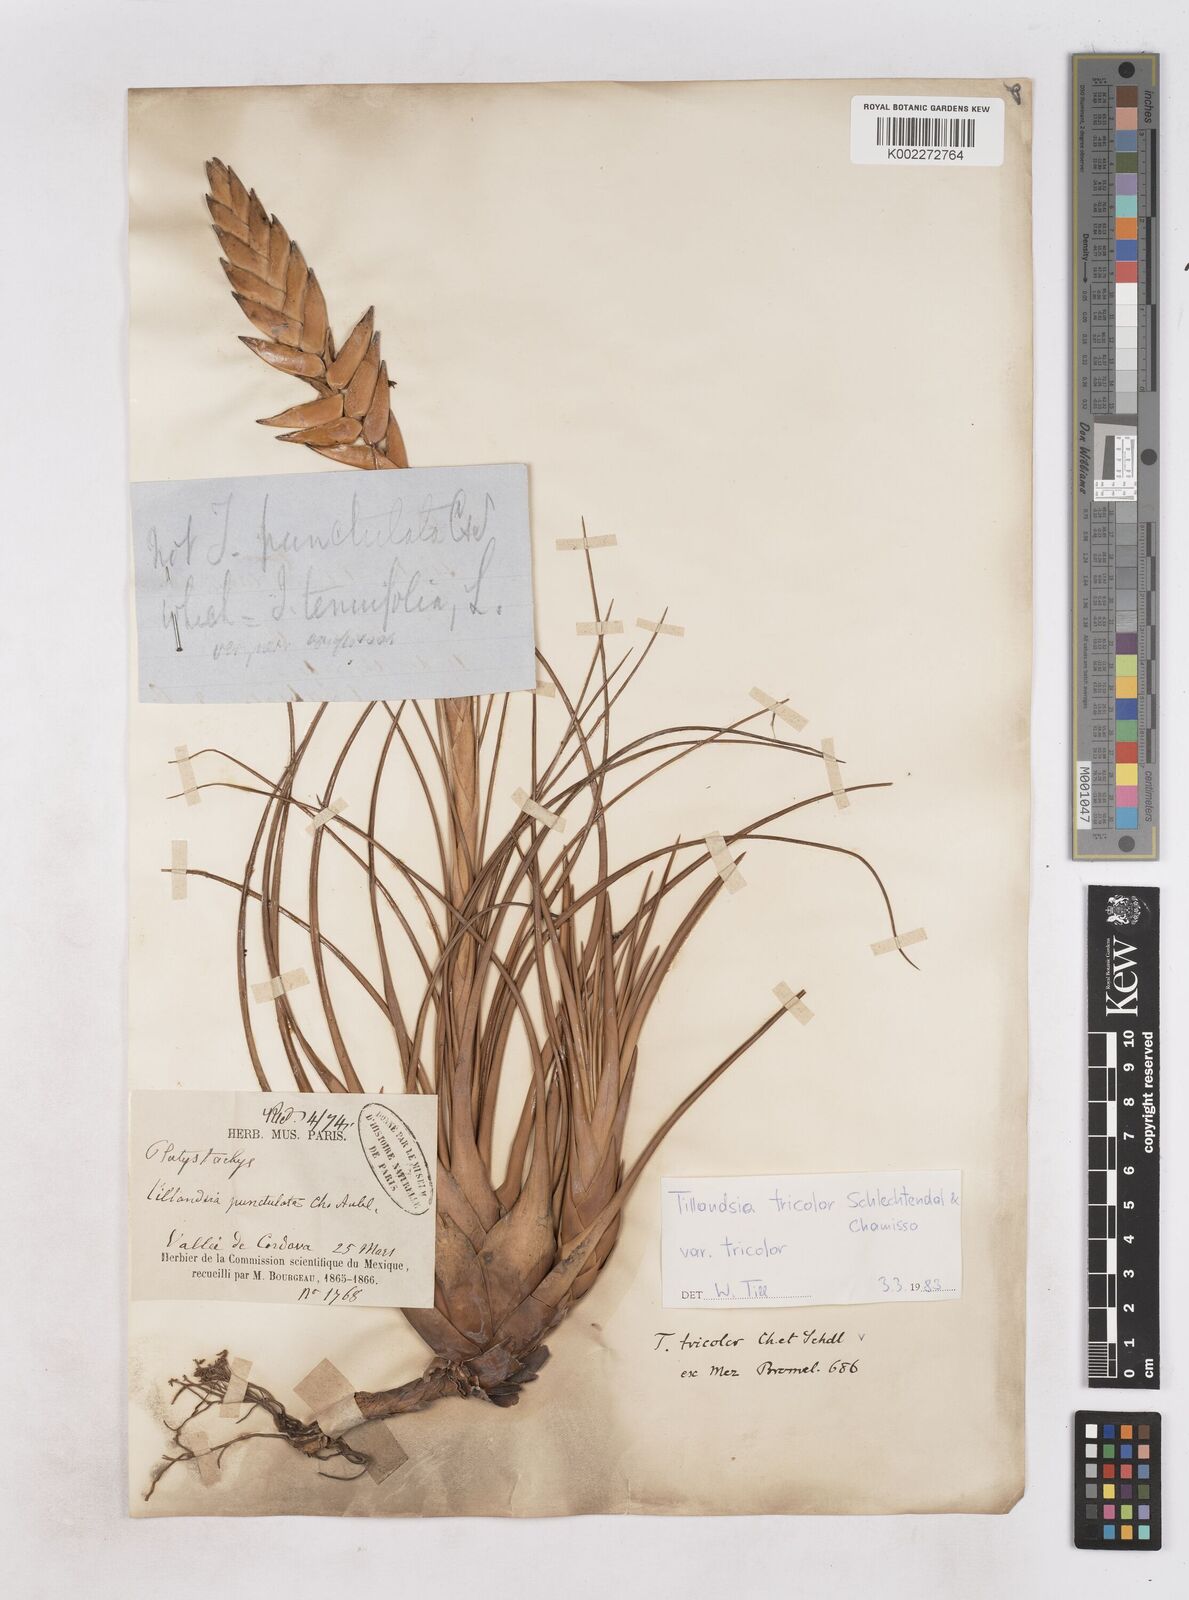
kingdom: Plantae
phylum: Tracheophyta
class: Liliopsida
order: Poales
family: Bromeliaceae
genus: Tillandsia
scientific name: Tillandsia tricolor
